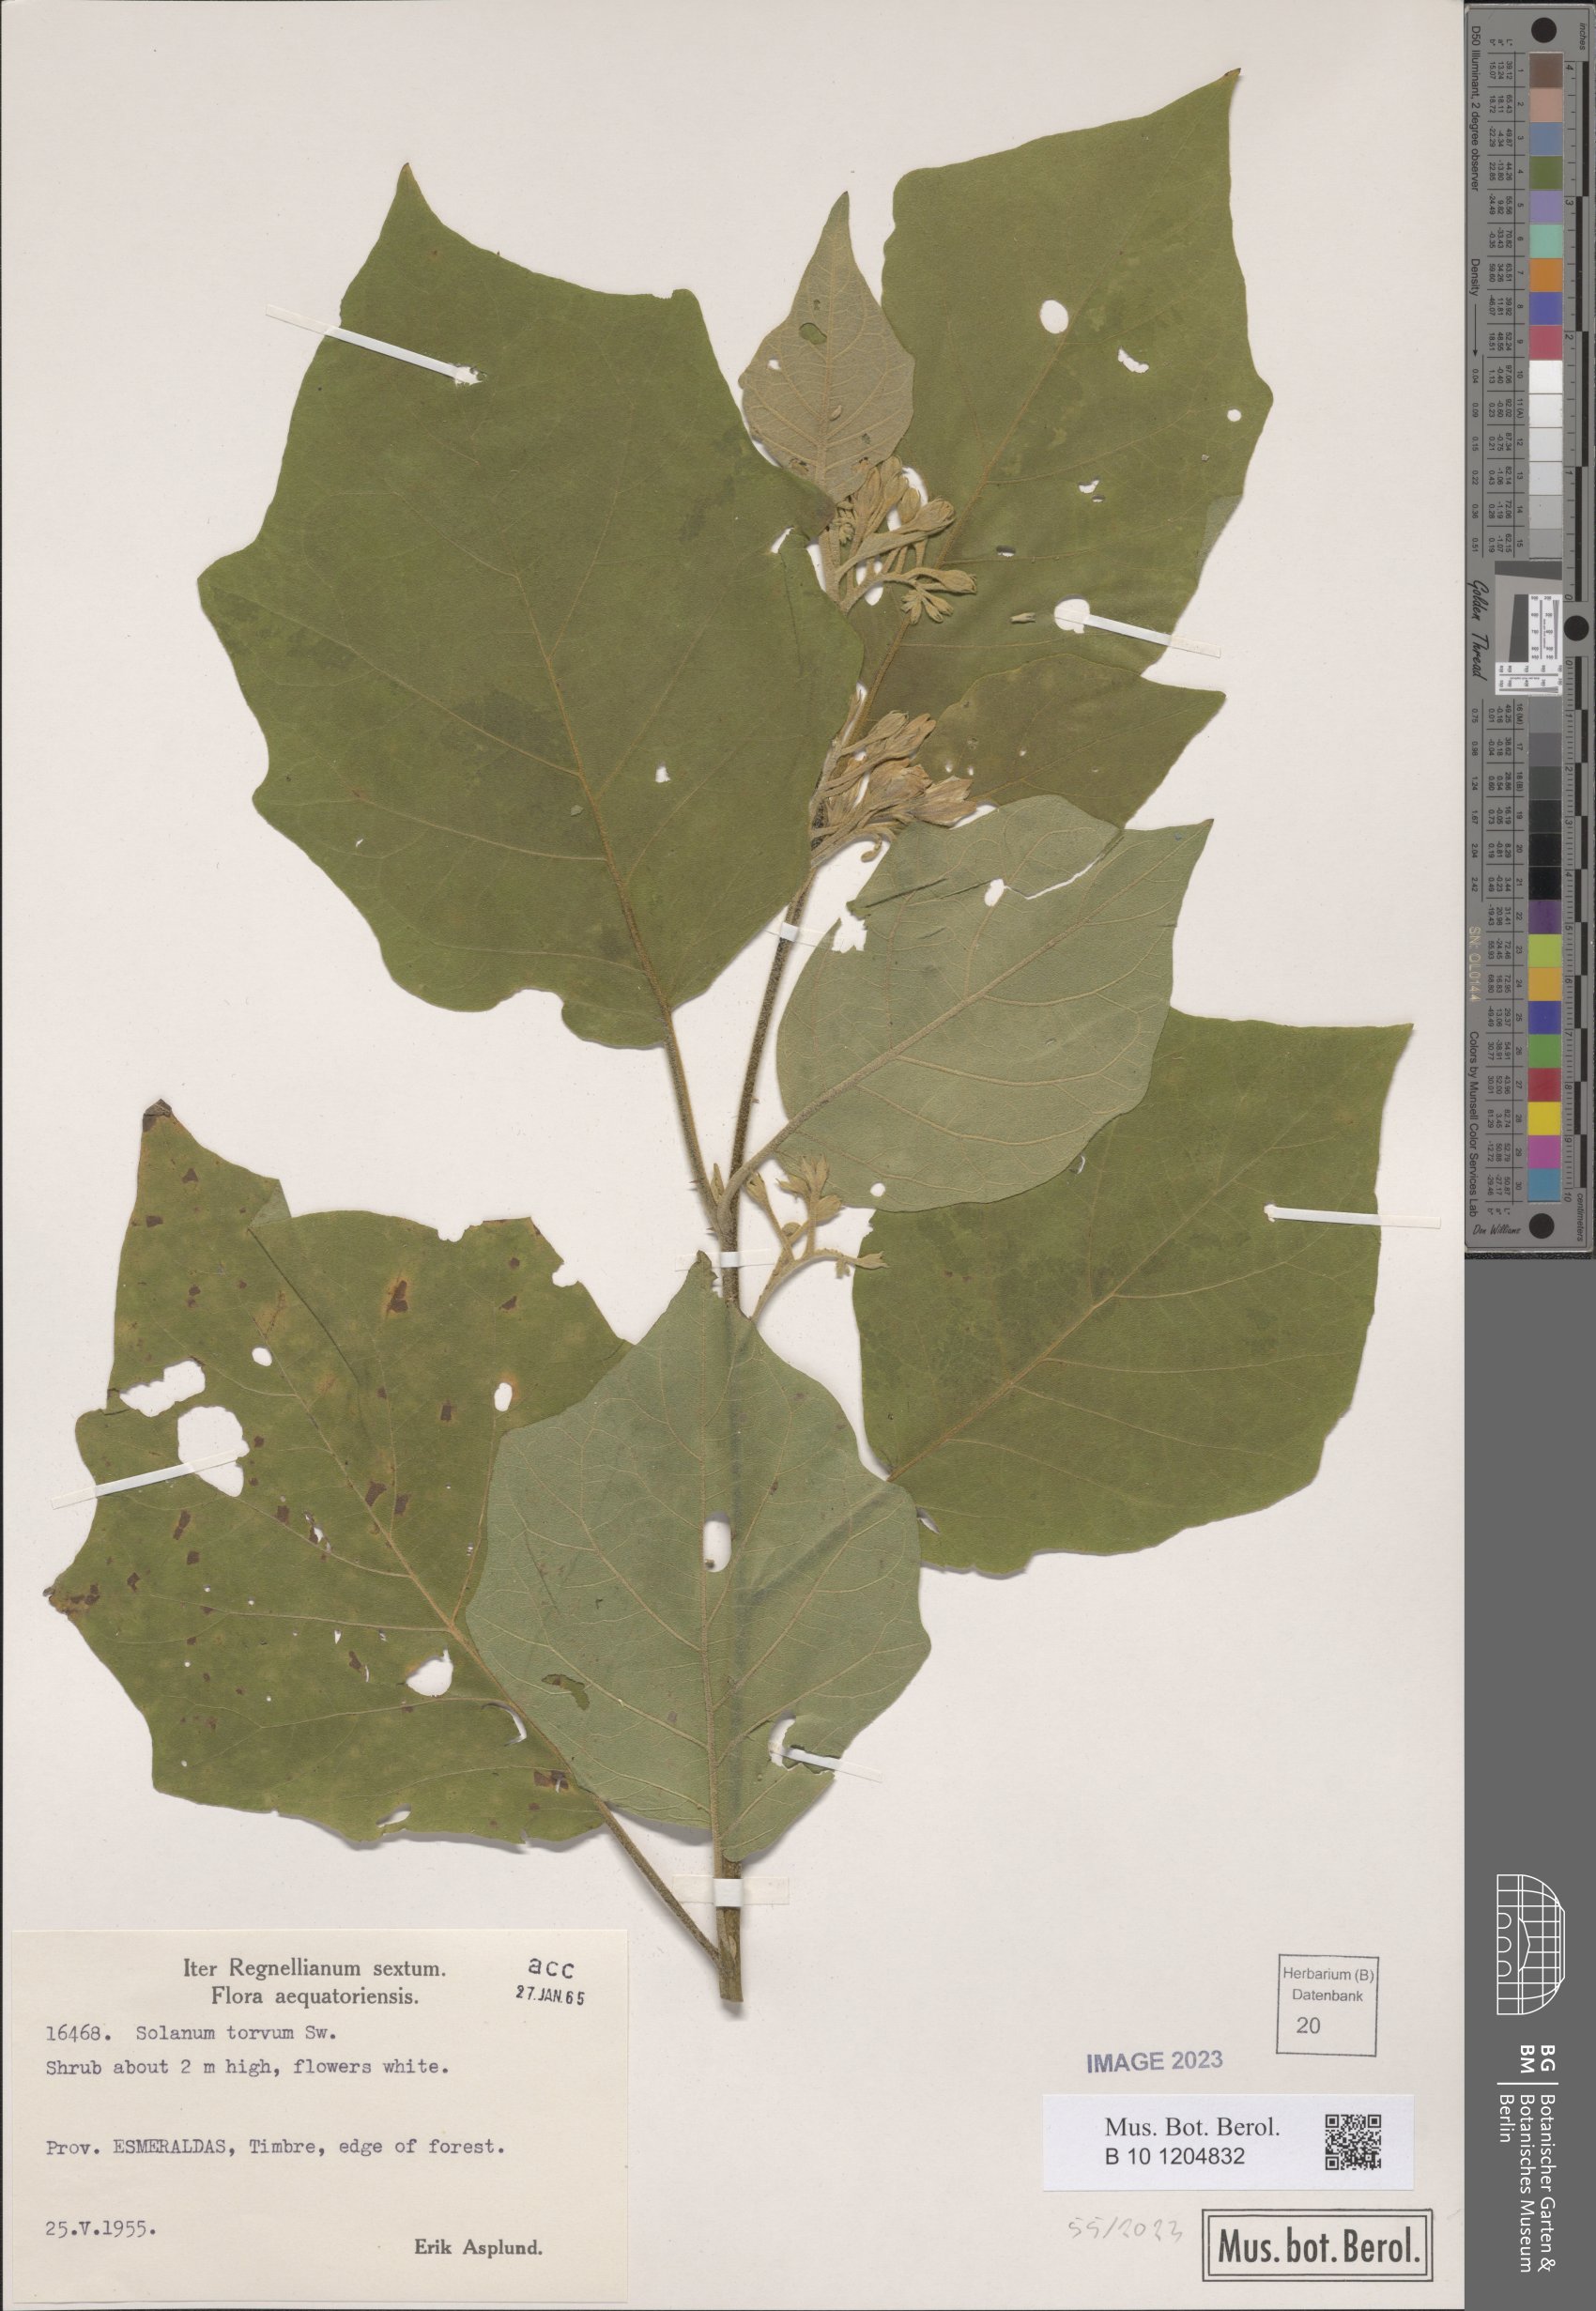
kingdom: Plantae
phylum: Tracheophyta
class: Magnoliopsida
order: Solanales
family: Solanaceae
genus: Solanum
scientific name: Solanum torvum
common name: Turkey berry
